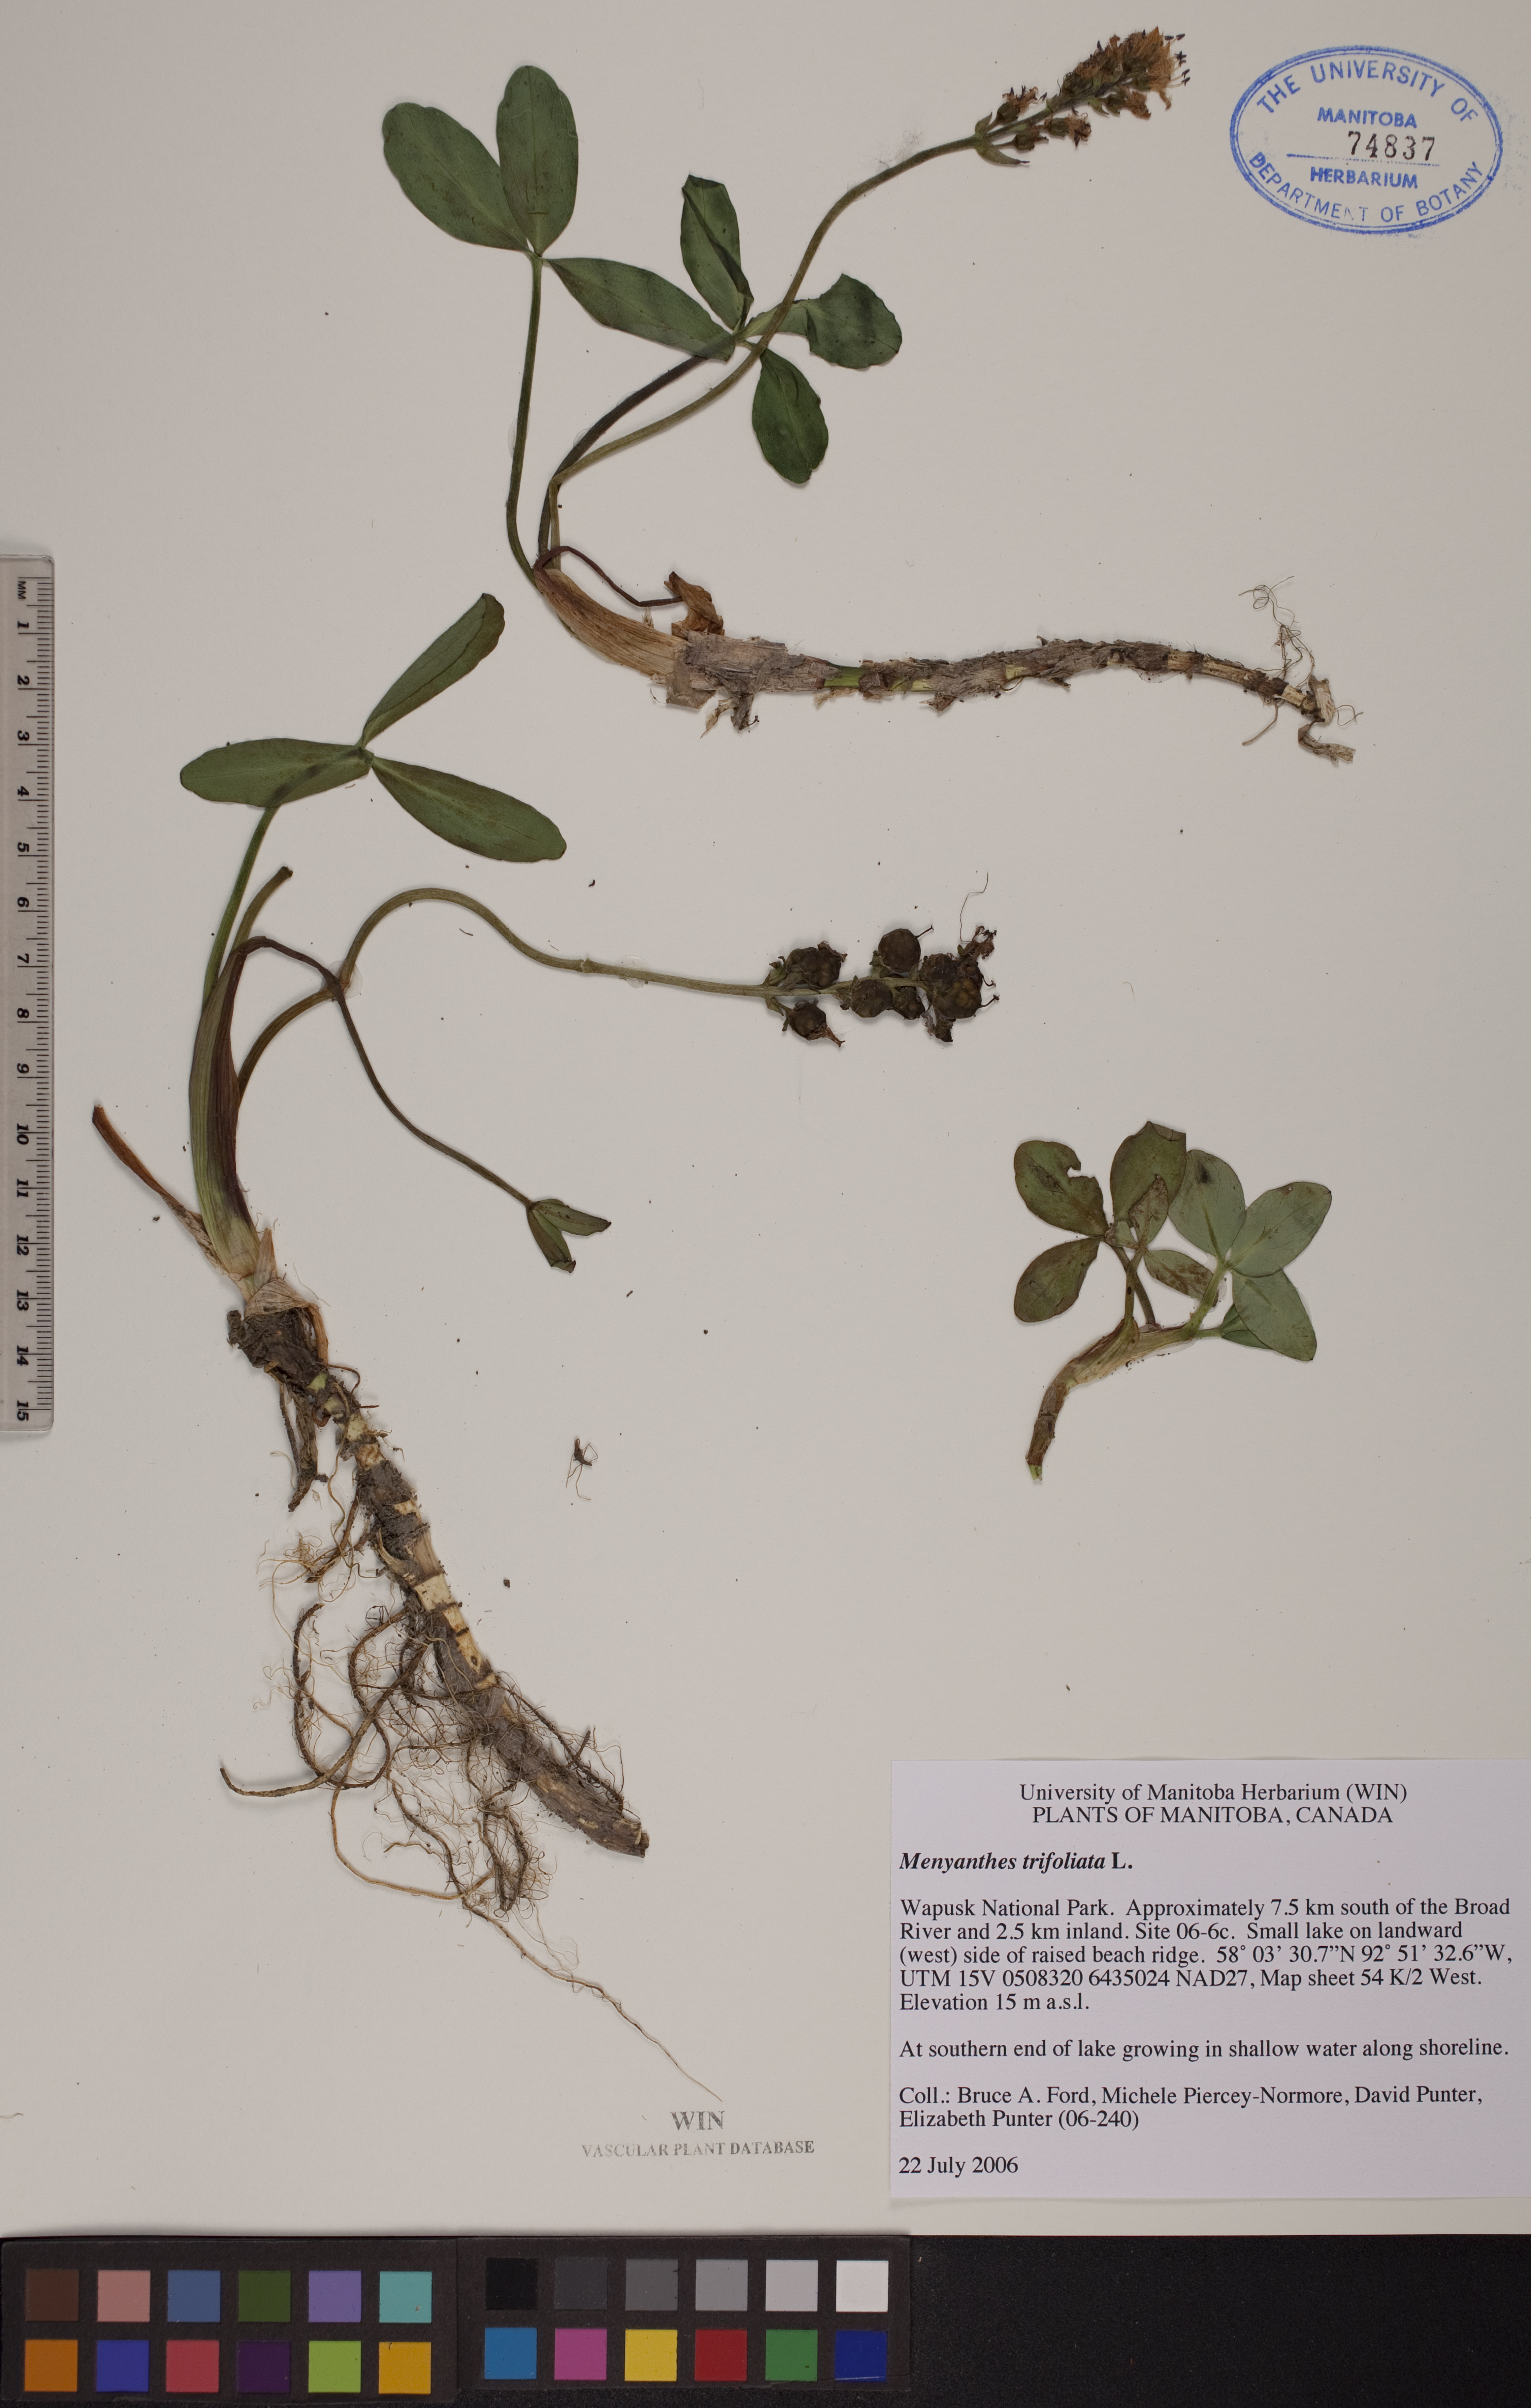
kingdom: Plantae
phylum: Tracheophyta
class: Magnoliopsida
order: Asterales
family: Menyanthaceae
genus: Menyanthes
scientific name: Menyanthes trifoliata
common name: Bogbean
